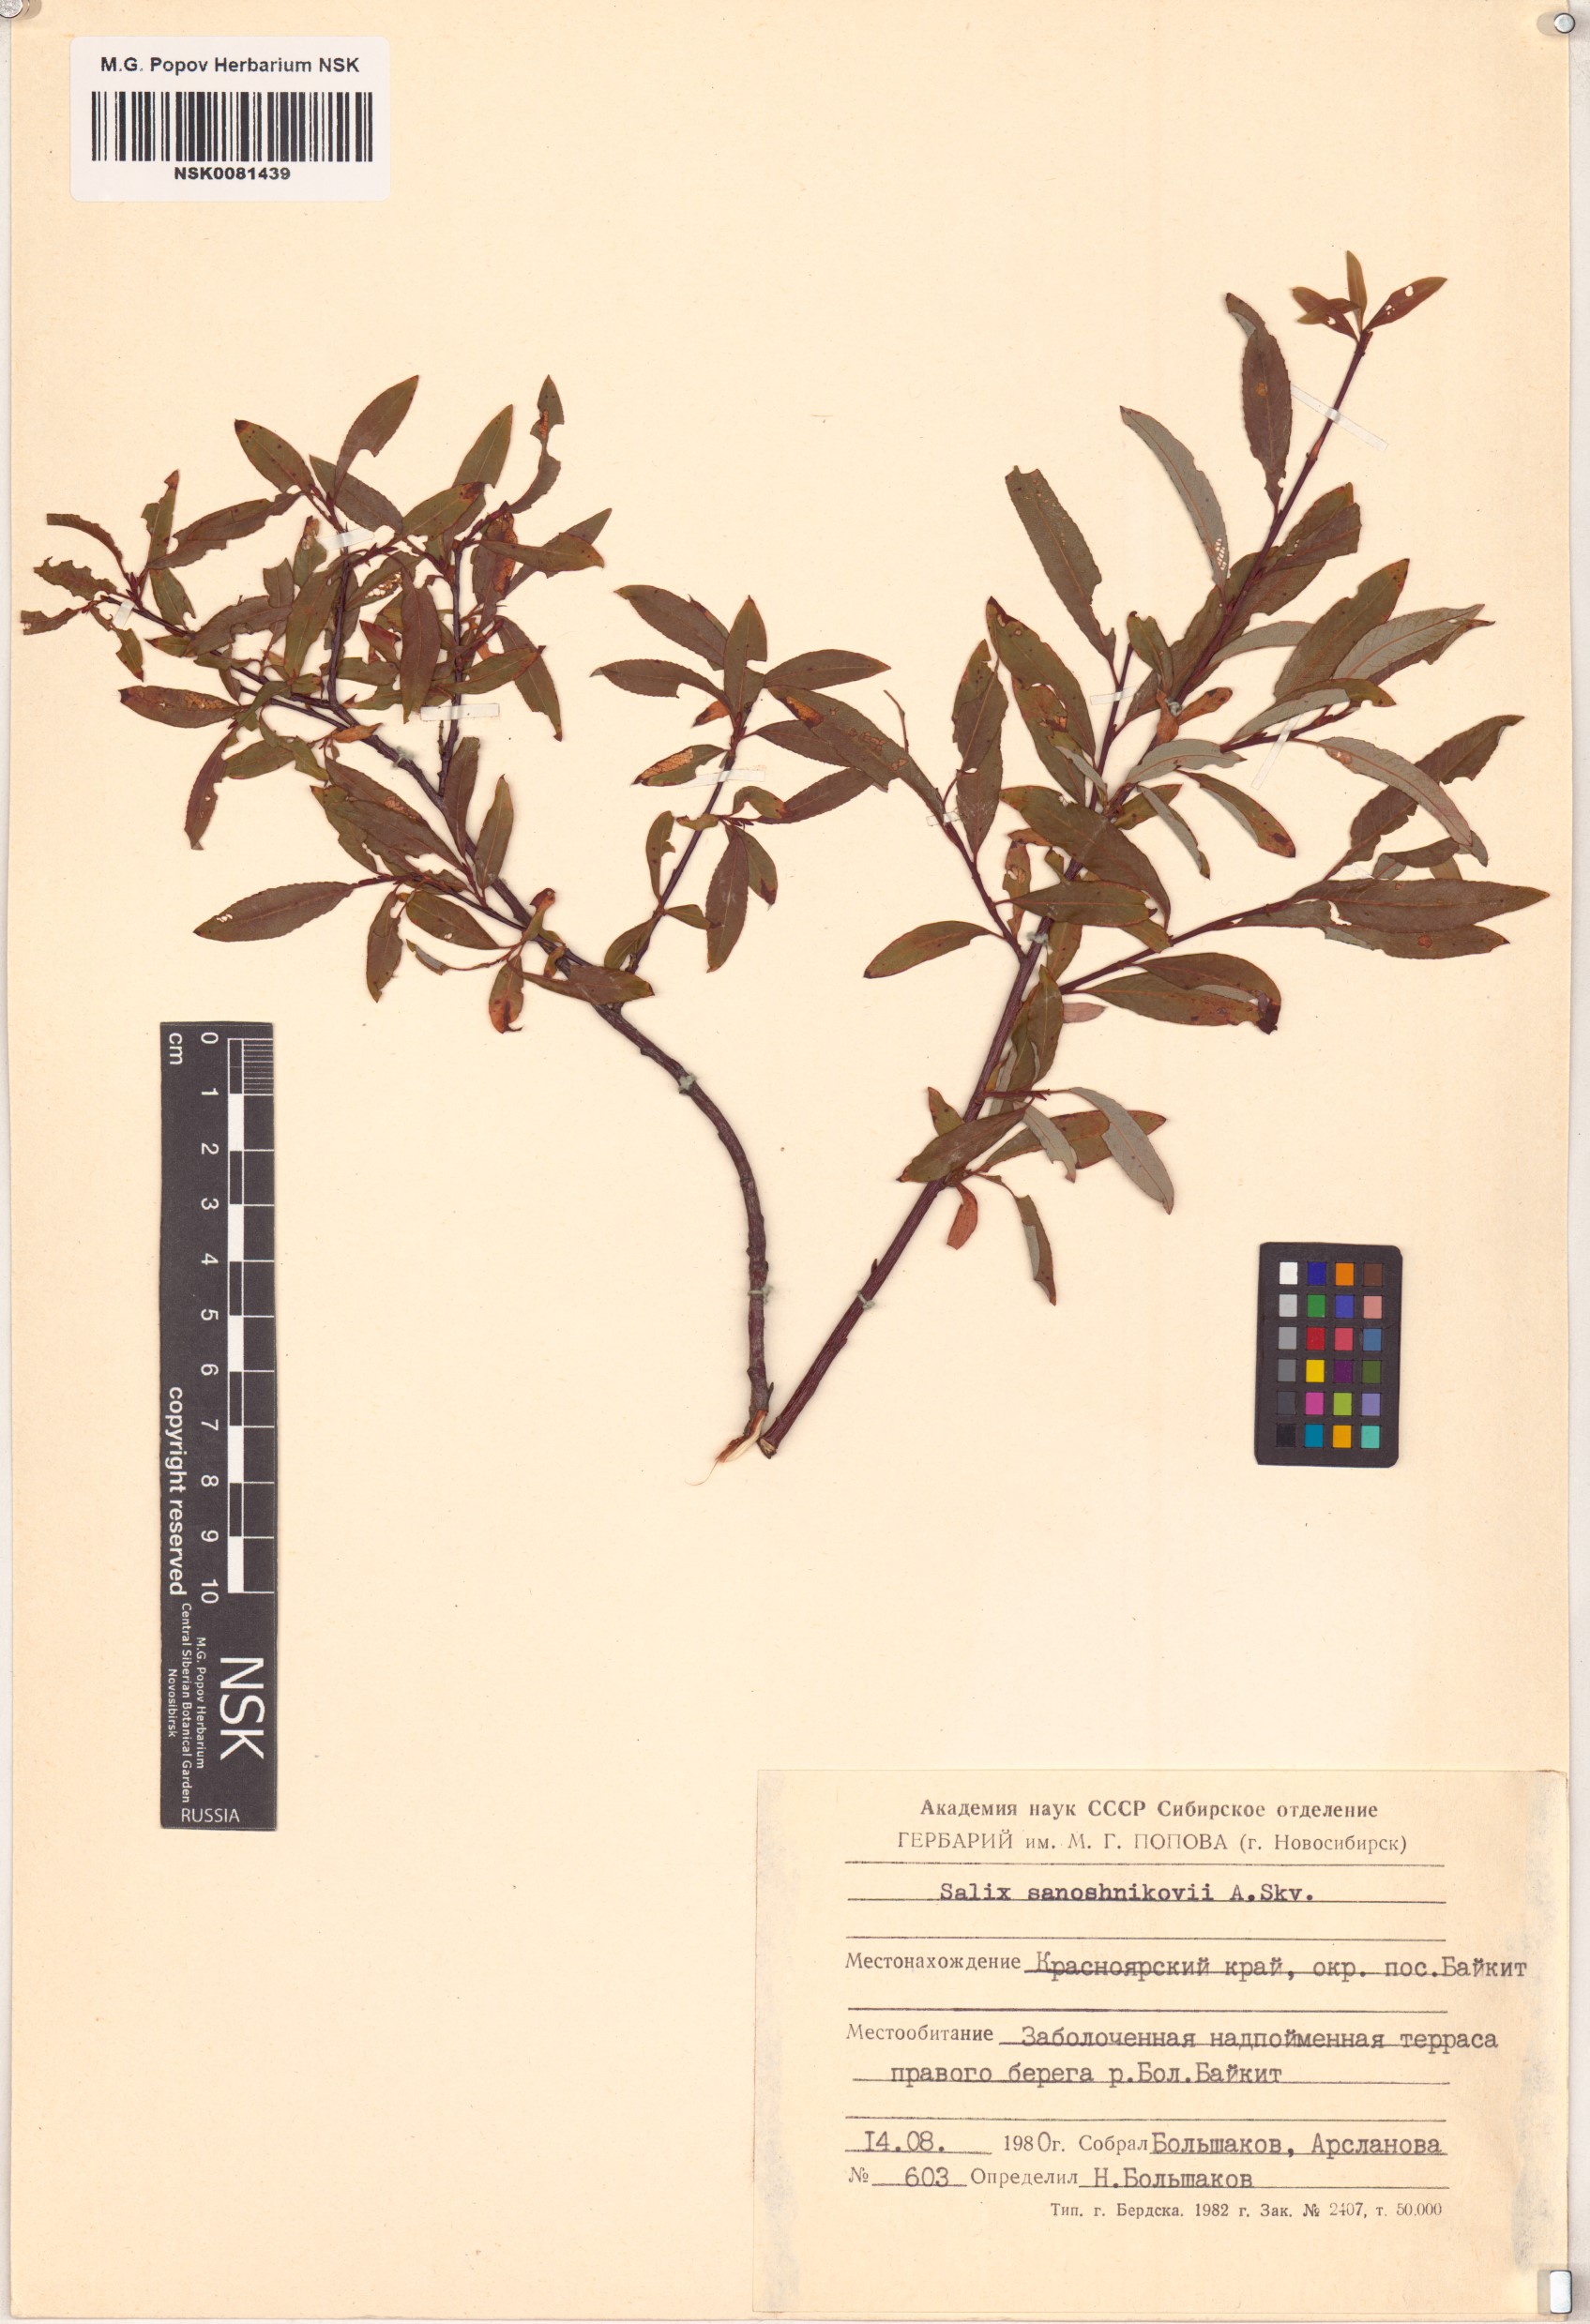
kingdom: Plantae
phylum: Tracheophyta
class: Magnoliopsida
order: Malpighiales
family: Salicaceae
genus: Salix
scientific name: Salix saposhnikovii
